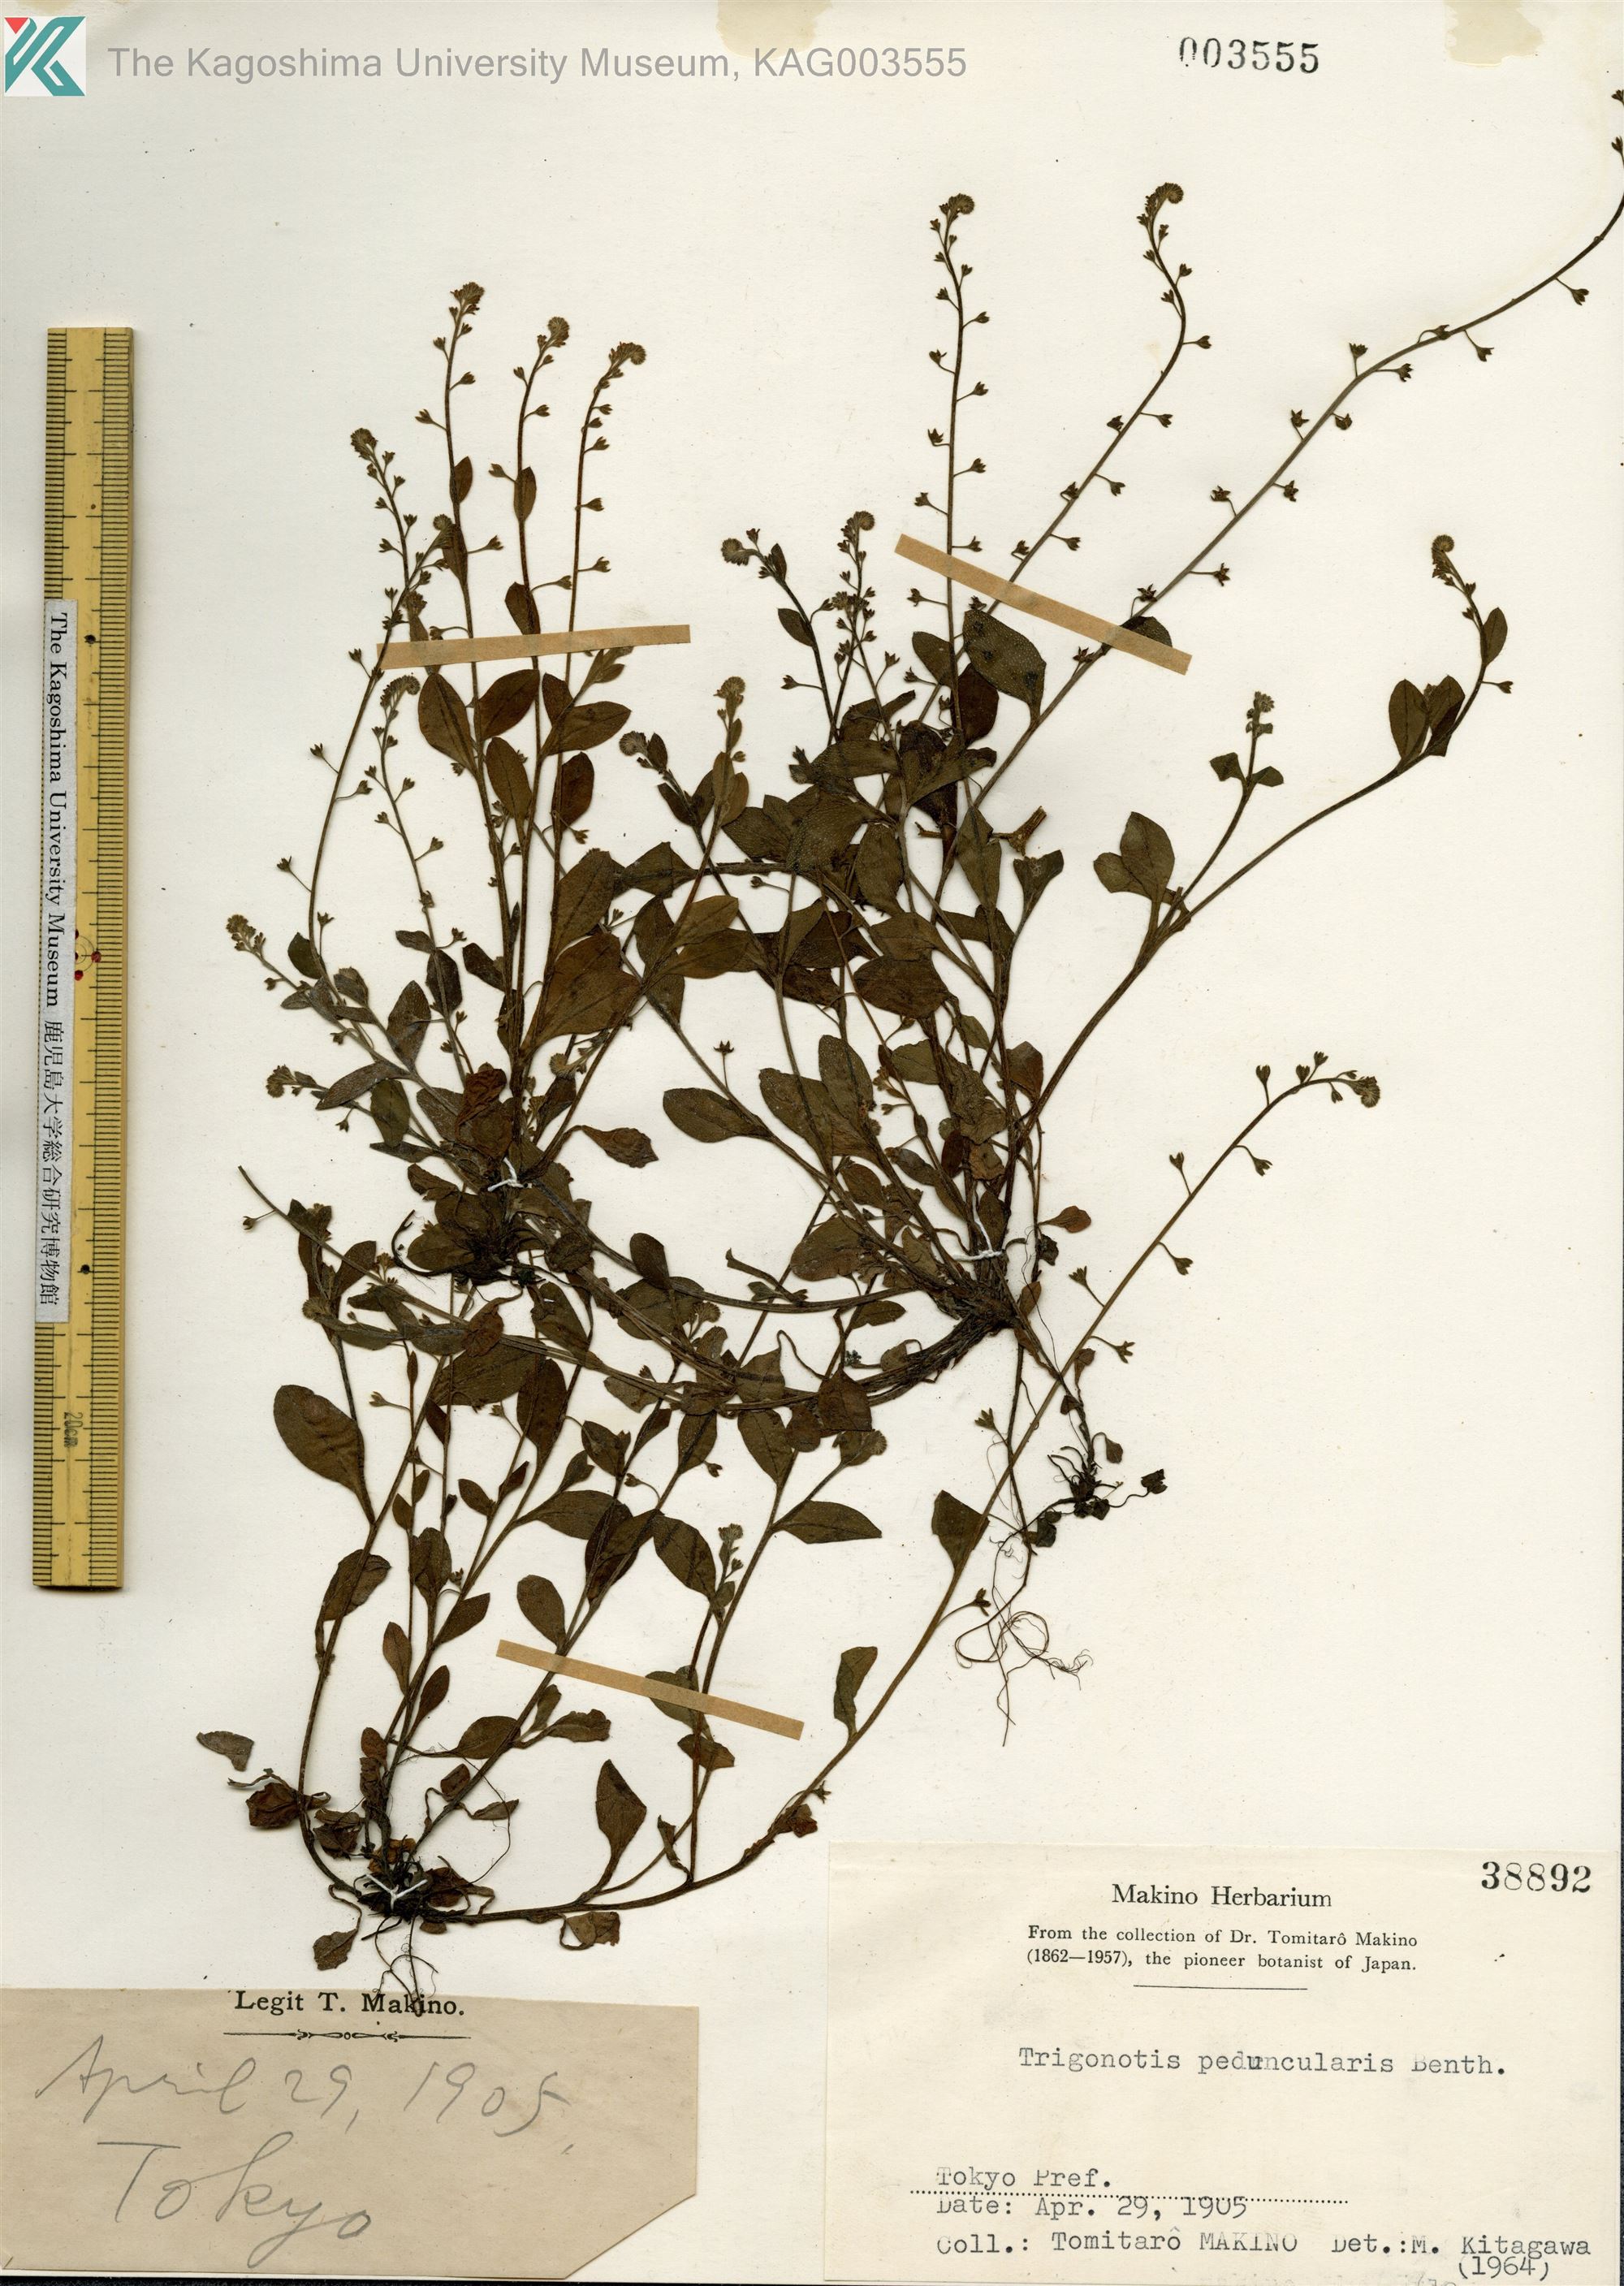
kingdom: Plantae
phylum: Tracheophyta
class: Magnoliopsida
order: Boraginales
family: Boraginaceae
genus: Trigonotis
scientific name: Trigonotis peduncularis
